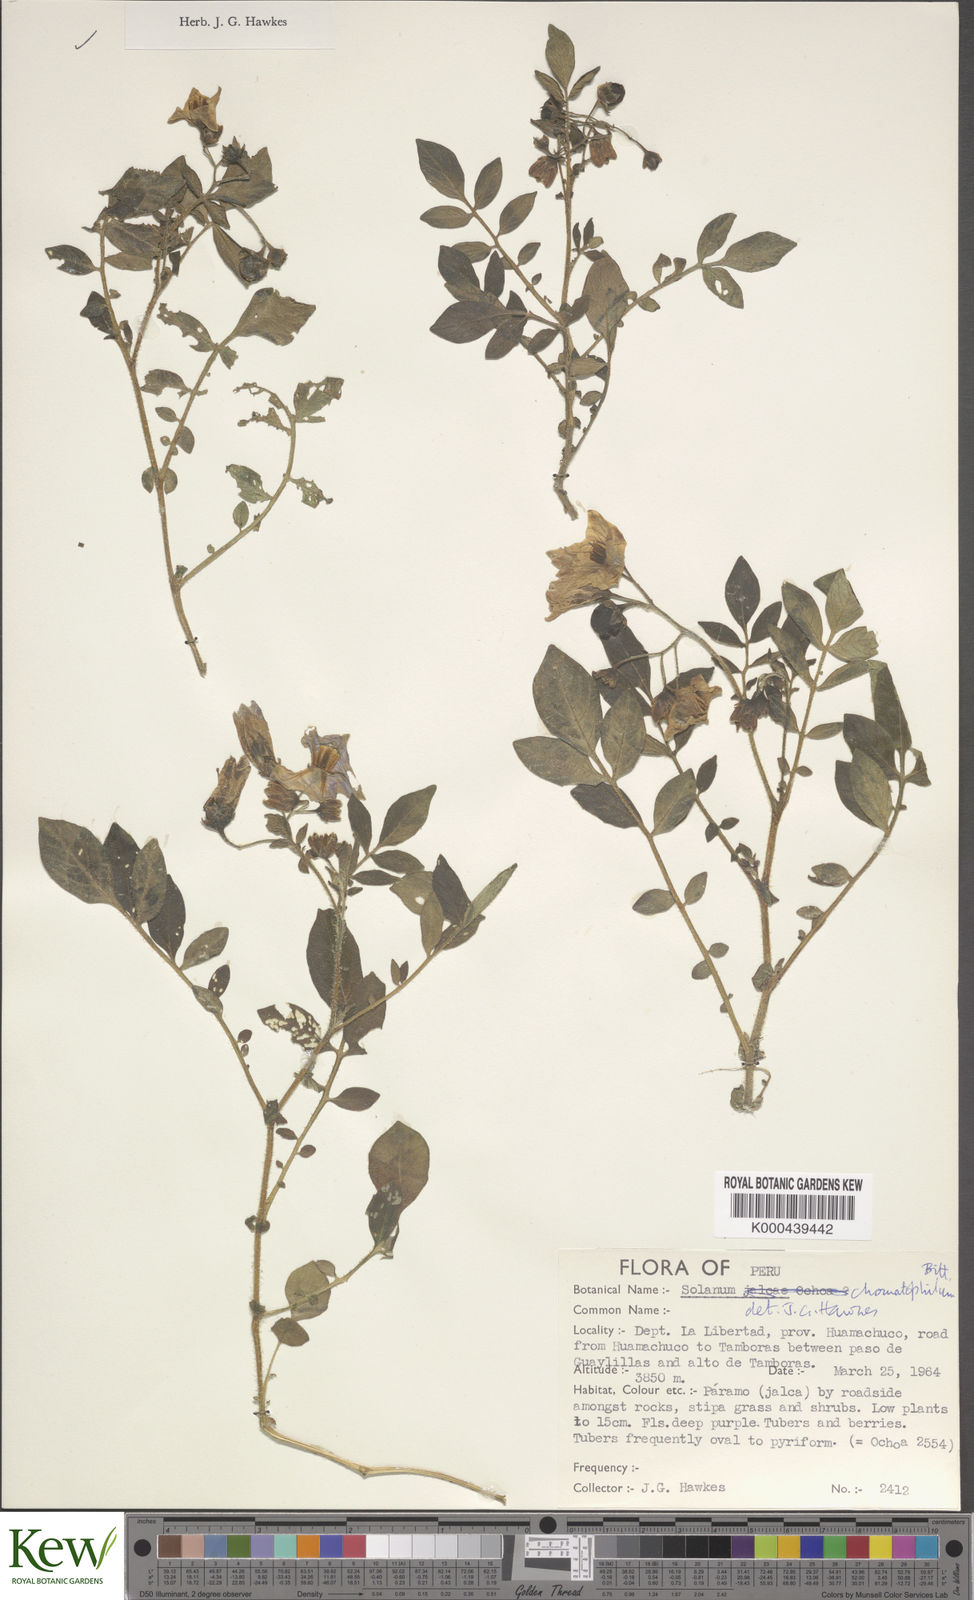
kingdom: Plantae
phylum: Tracheophyta
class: Magnoliopsida
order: Solanales
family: Solanaceae
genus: Solanum
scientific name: Solanum chomatophilum
